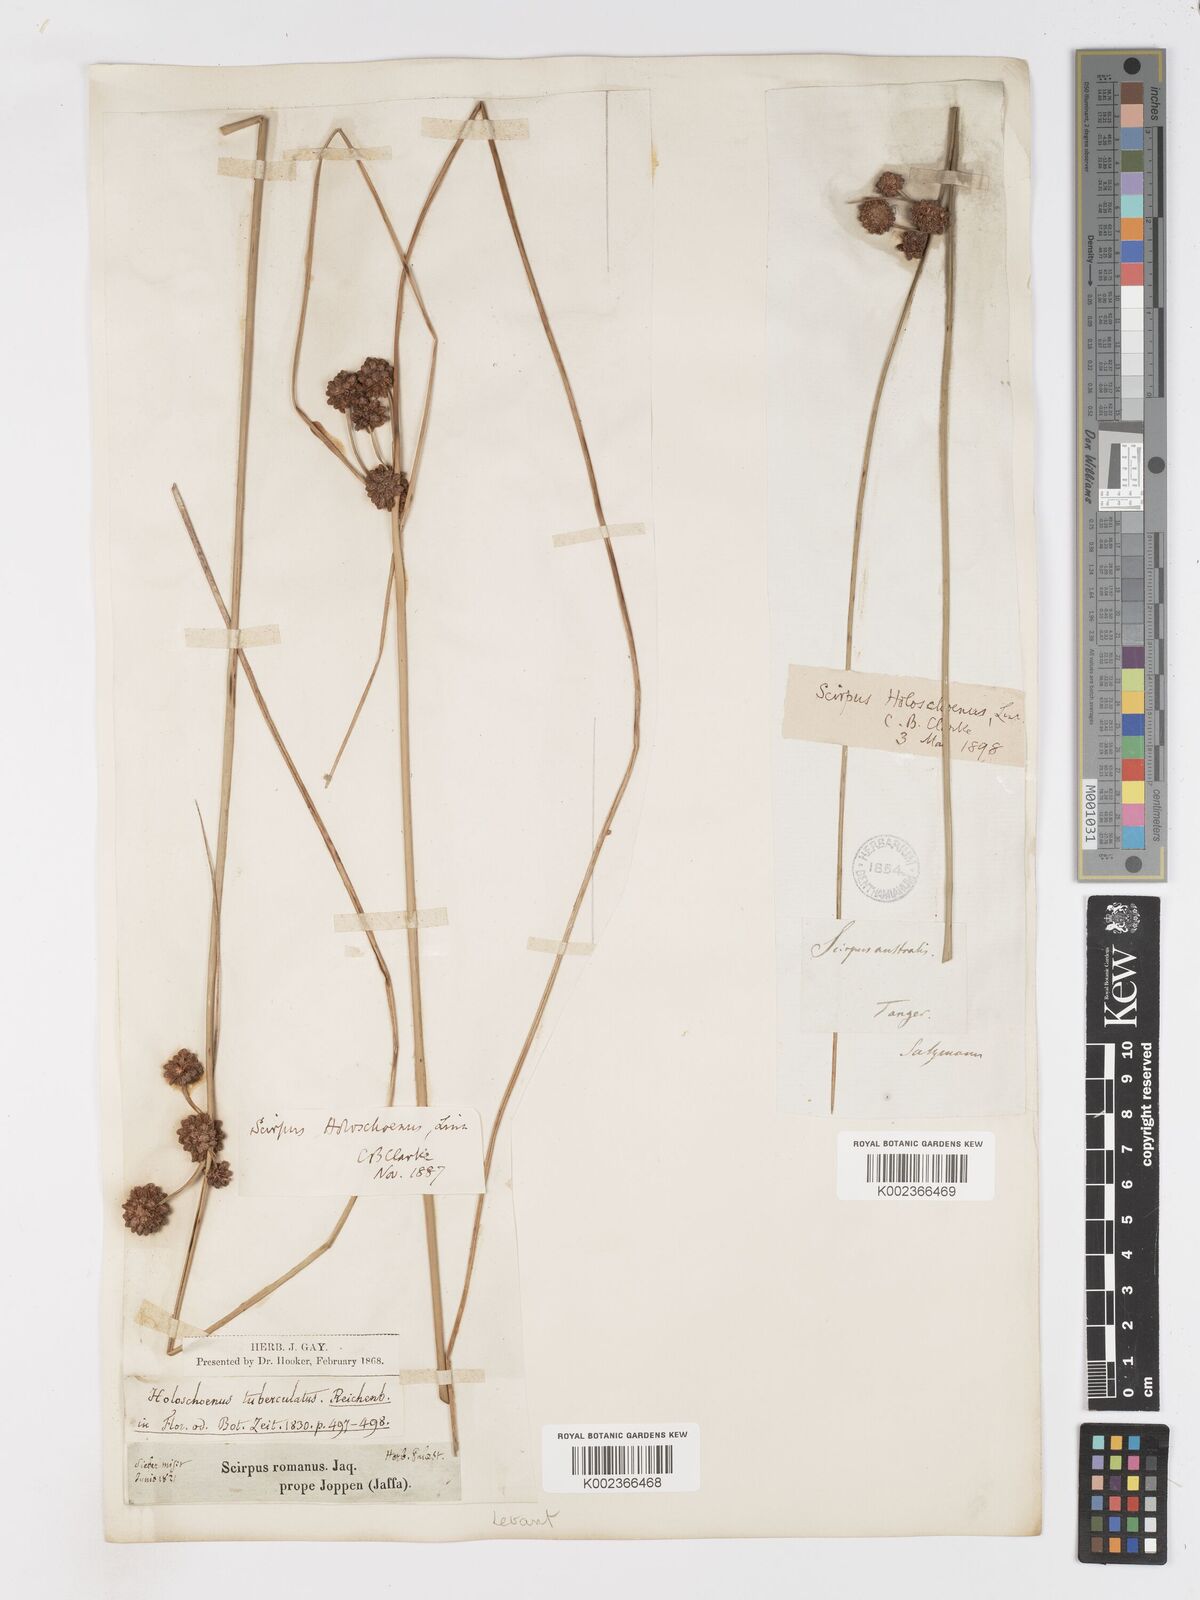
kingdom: Plantae
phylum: Tracheophyta
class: Liliopsida
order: Poales
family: Cyperaceae
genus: Scirpoides
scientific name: Scirpoides holoschoenus
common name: Round-headed club-rush
